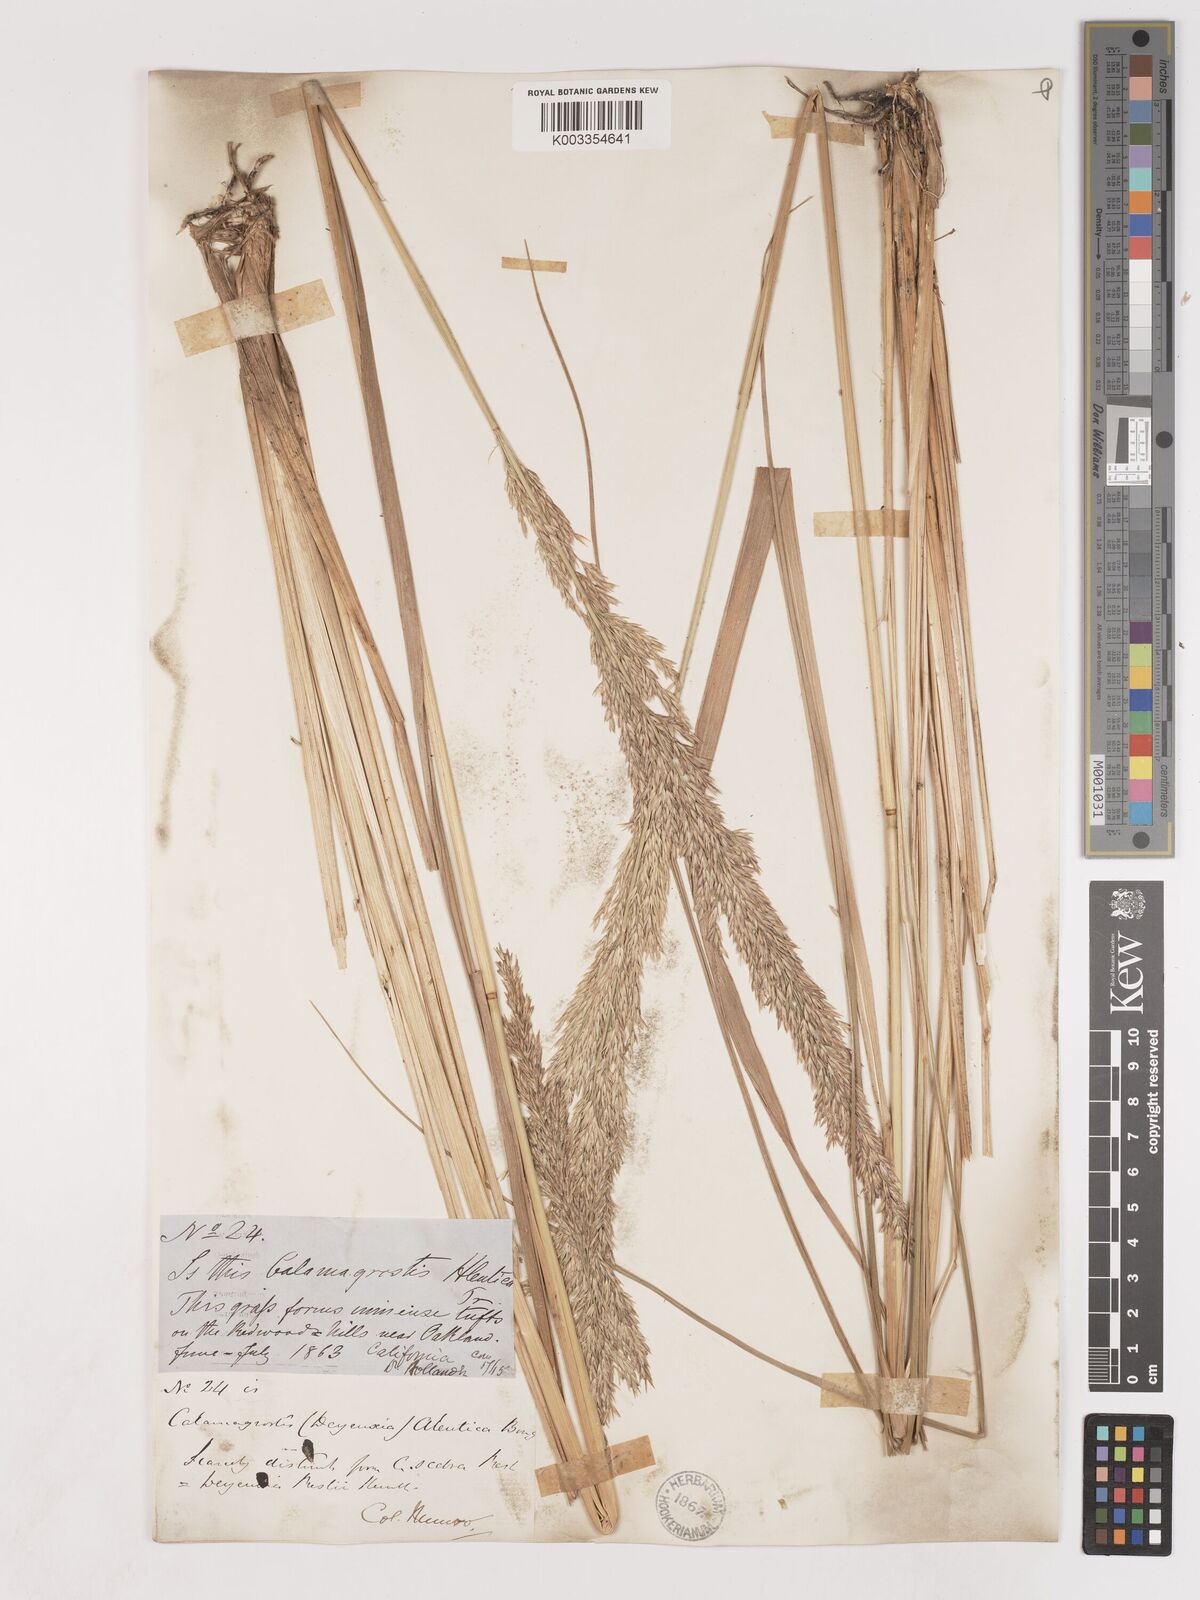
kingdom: Plantae
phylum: Tracheophyta
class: Liliopsida
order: Poales
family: Poaceae
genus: Calamagrostis
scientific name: Calamagrostis nutkaensis
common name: Pacific reed grass
